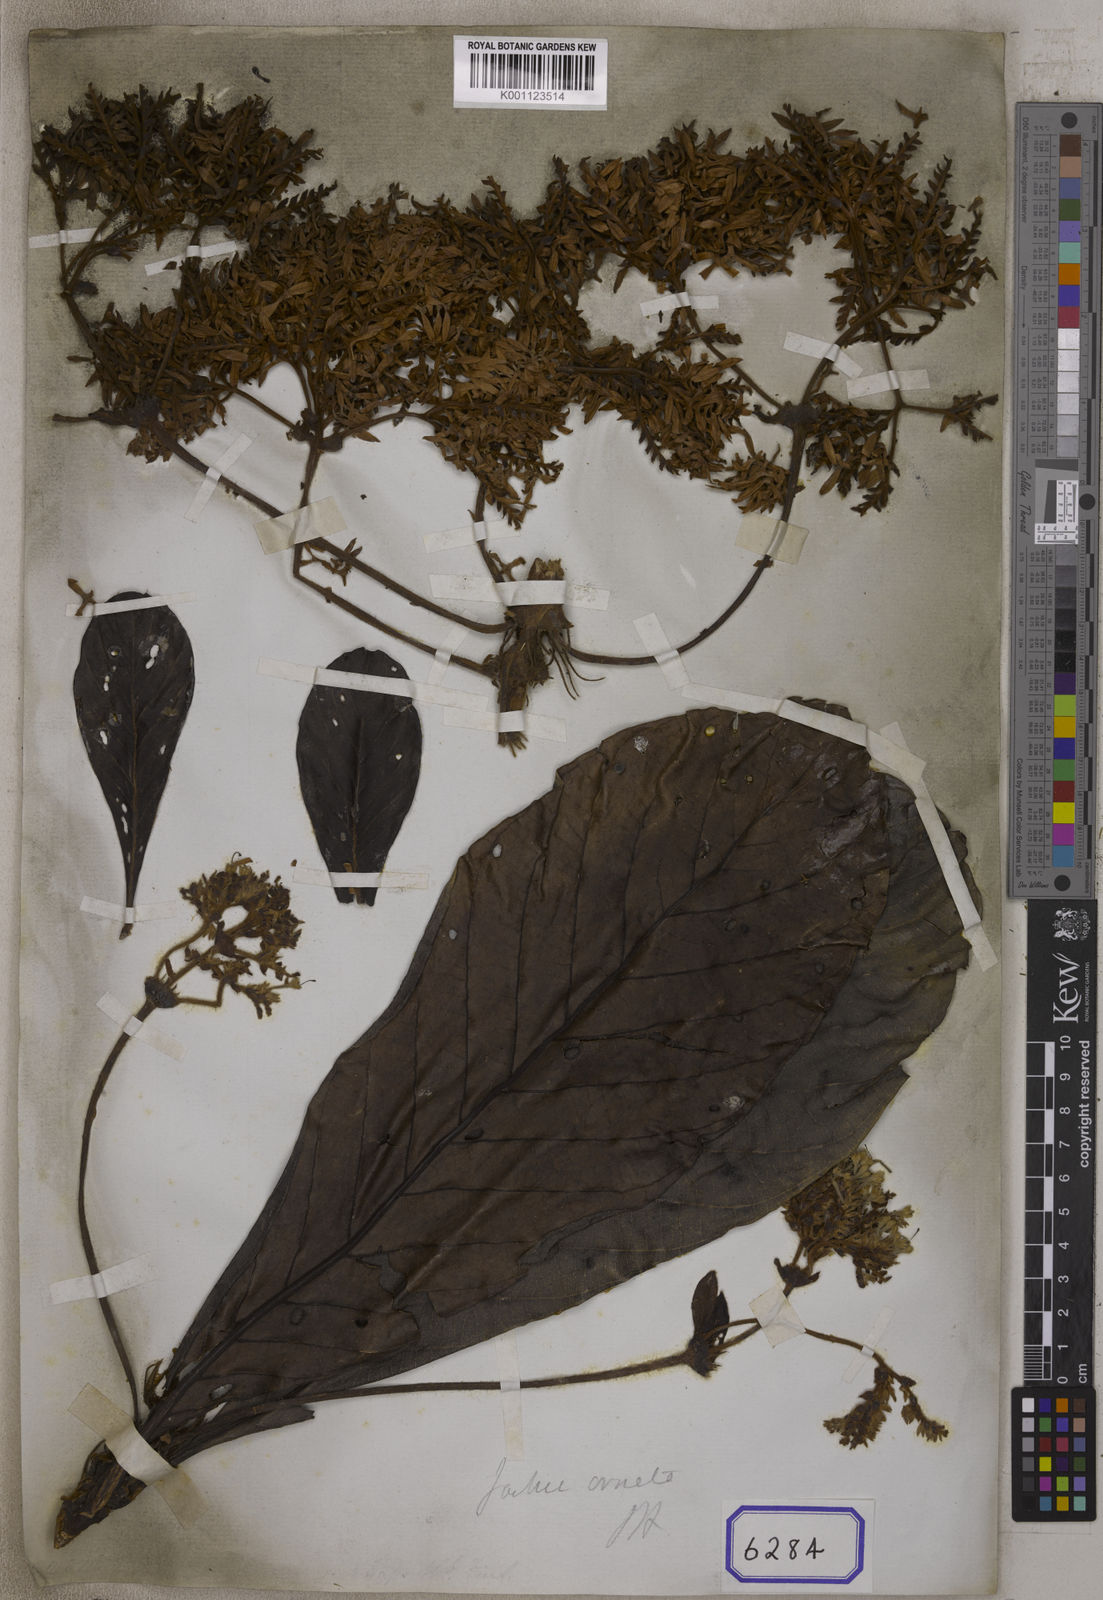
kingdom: Plantae
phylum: Tracheophyta
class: Magnoliopsida
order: Fabales
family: Polygalaceae
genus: Jackia
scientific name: Jackia
